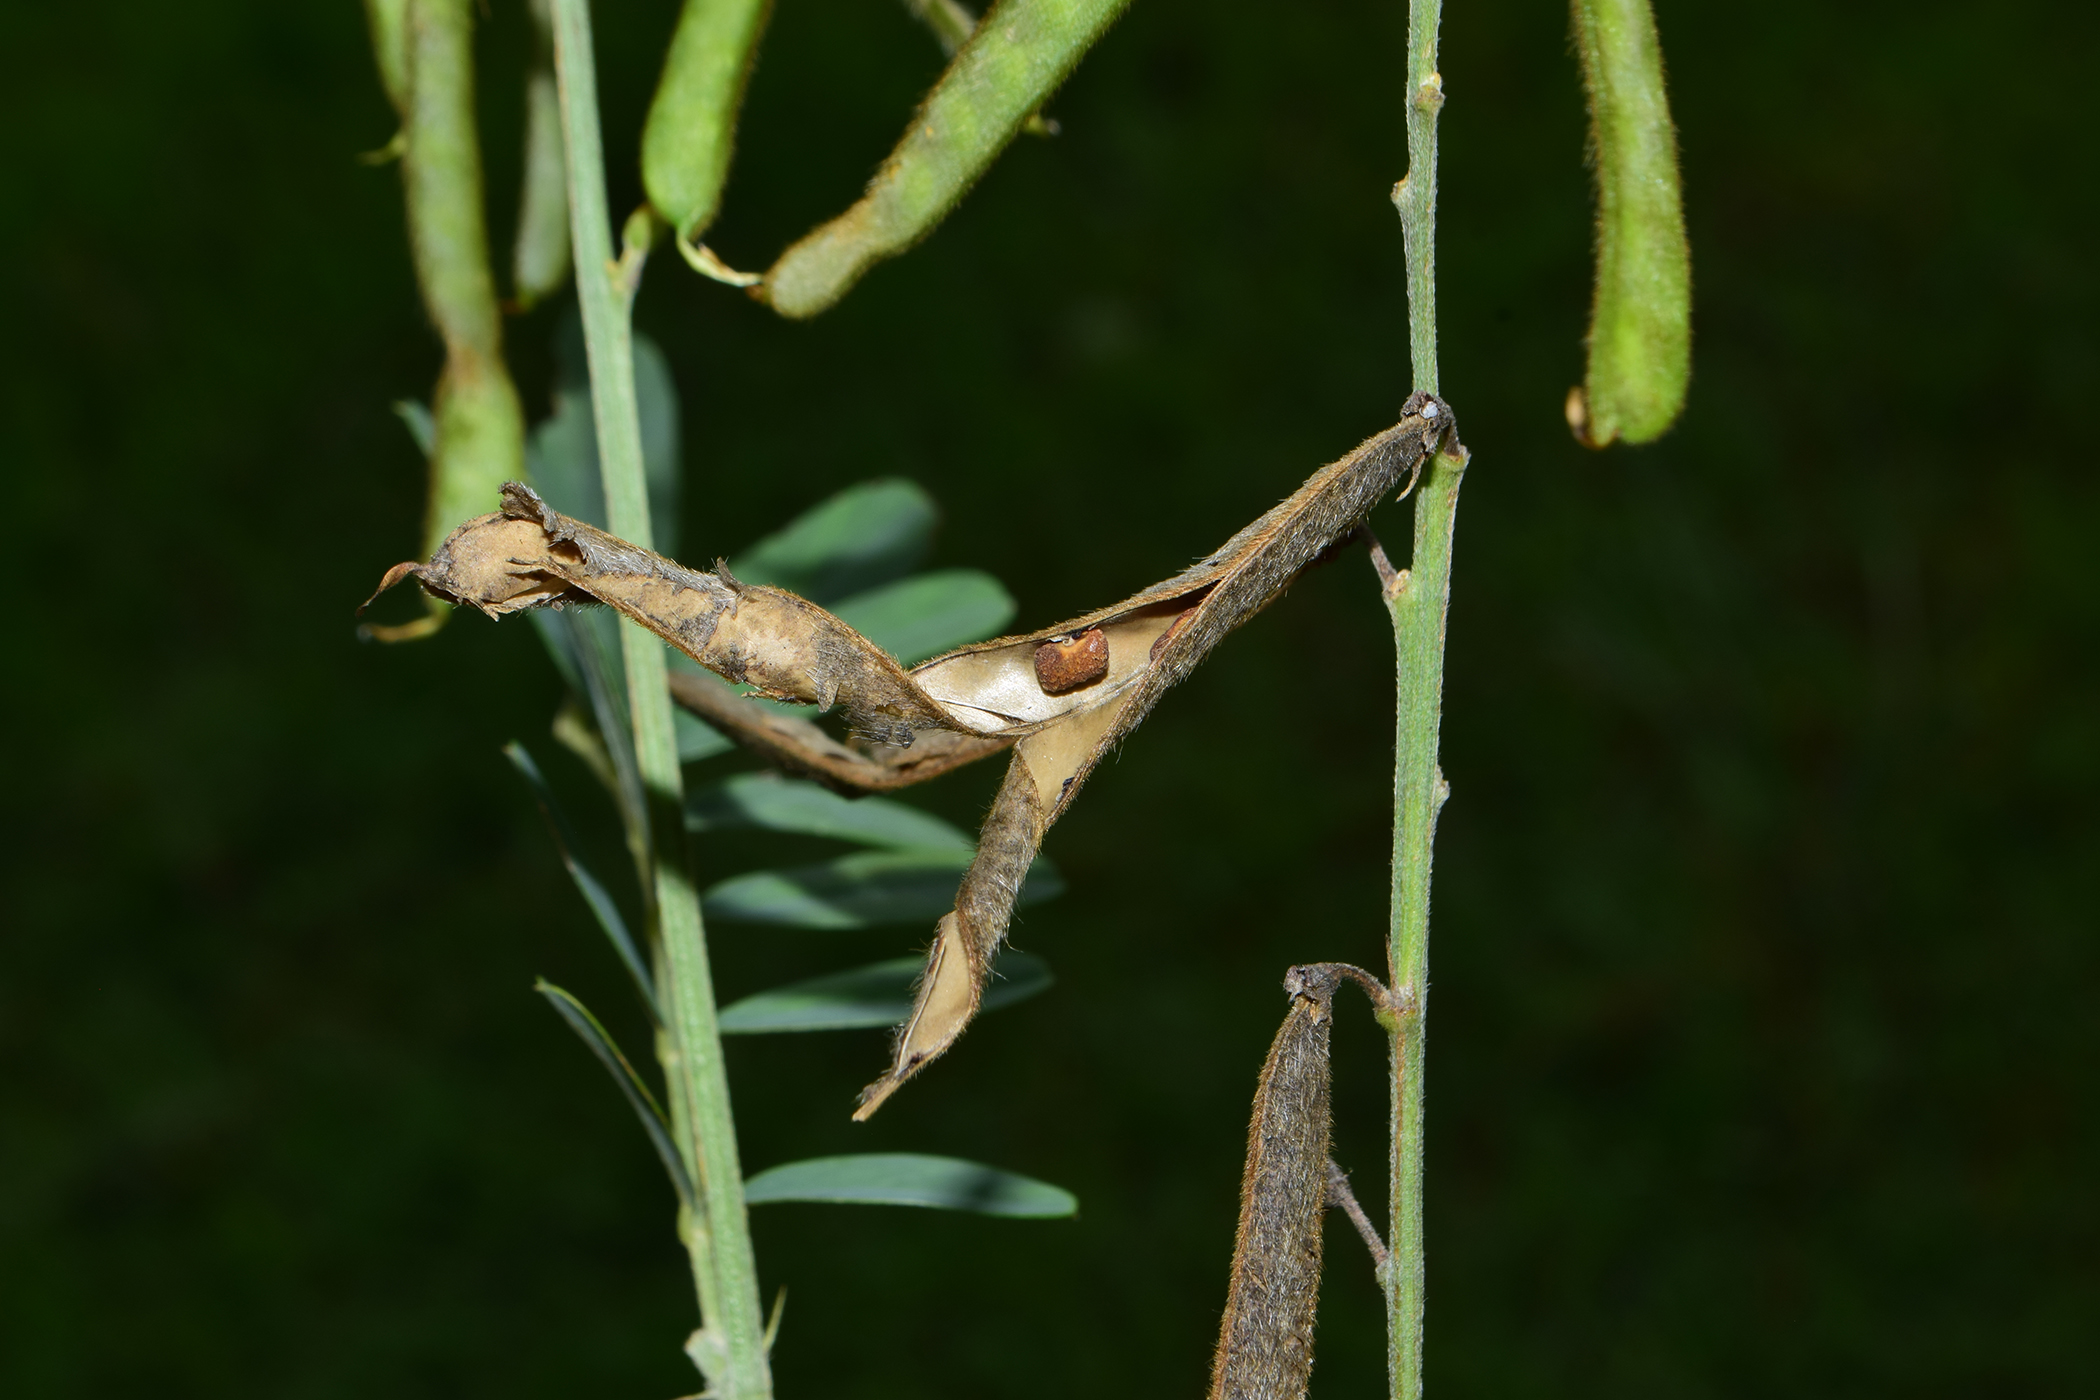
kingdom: Plantae
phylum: Tracheophyta
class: Magnoliopsida
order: Fabales
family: Fabaceae
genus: Tephrosia
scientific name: Tephrosia noctiflora
